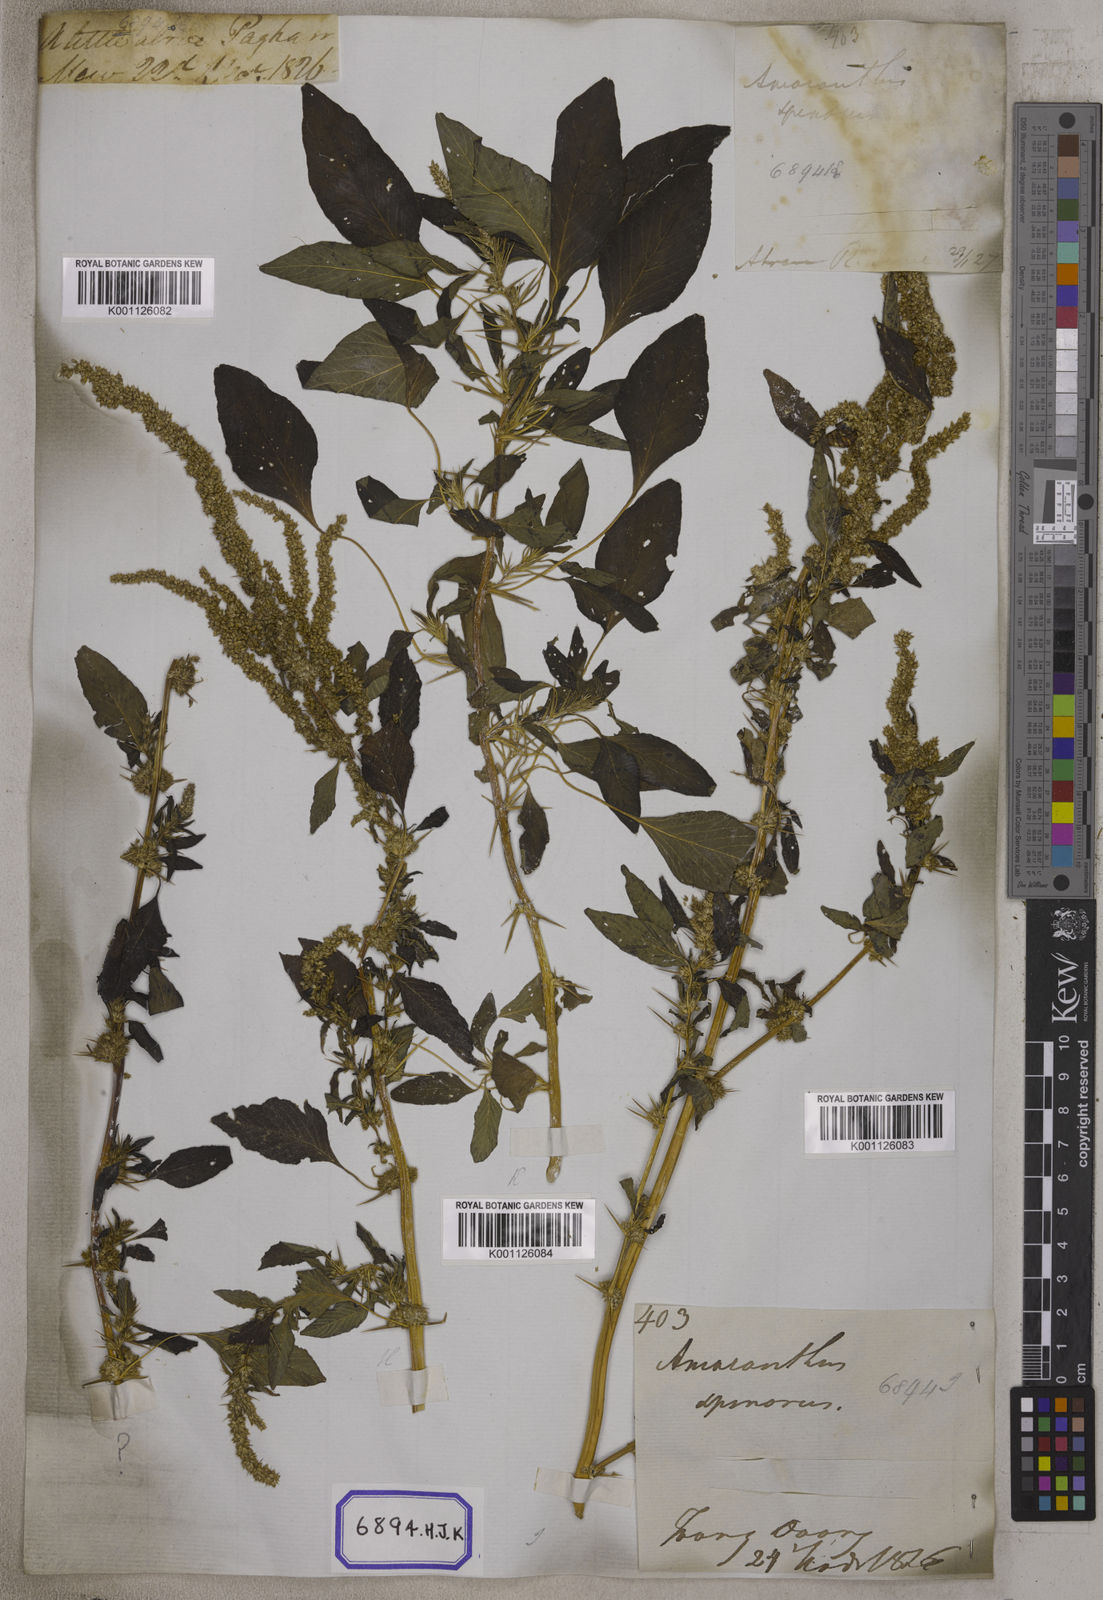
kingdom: Plantae
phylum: Tracheophyta
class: Magnoliopsida
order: Caryophyllales
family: Amaranthaceae
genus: Amaranthus
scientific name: Amaranthus spinosus
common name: Spiny amaranth
